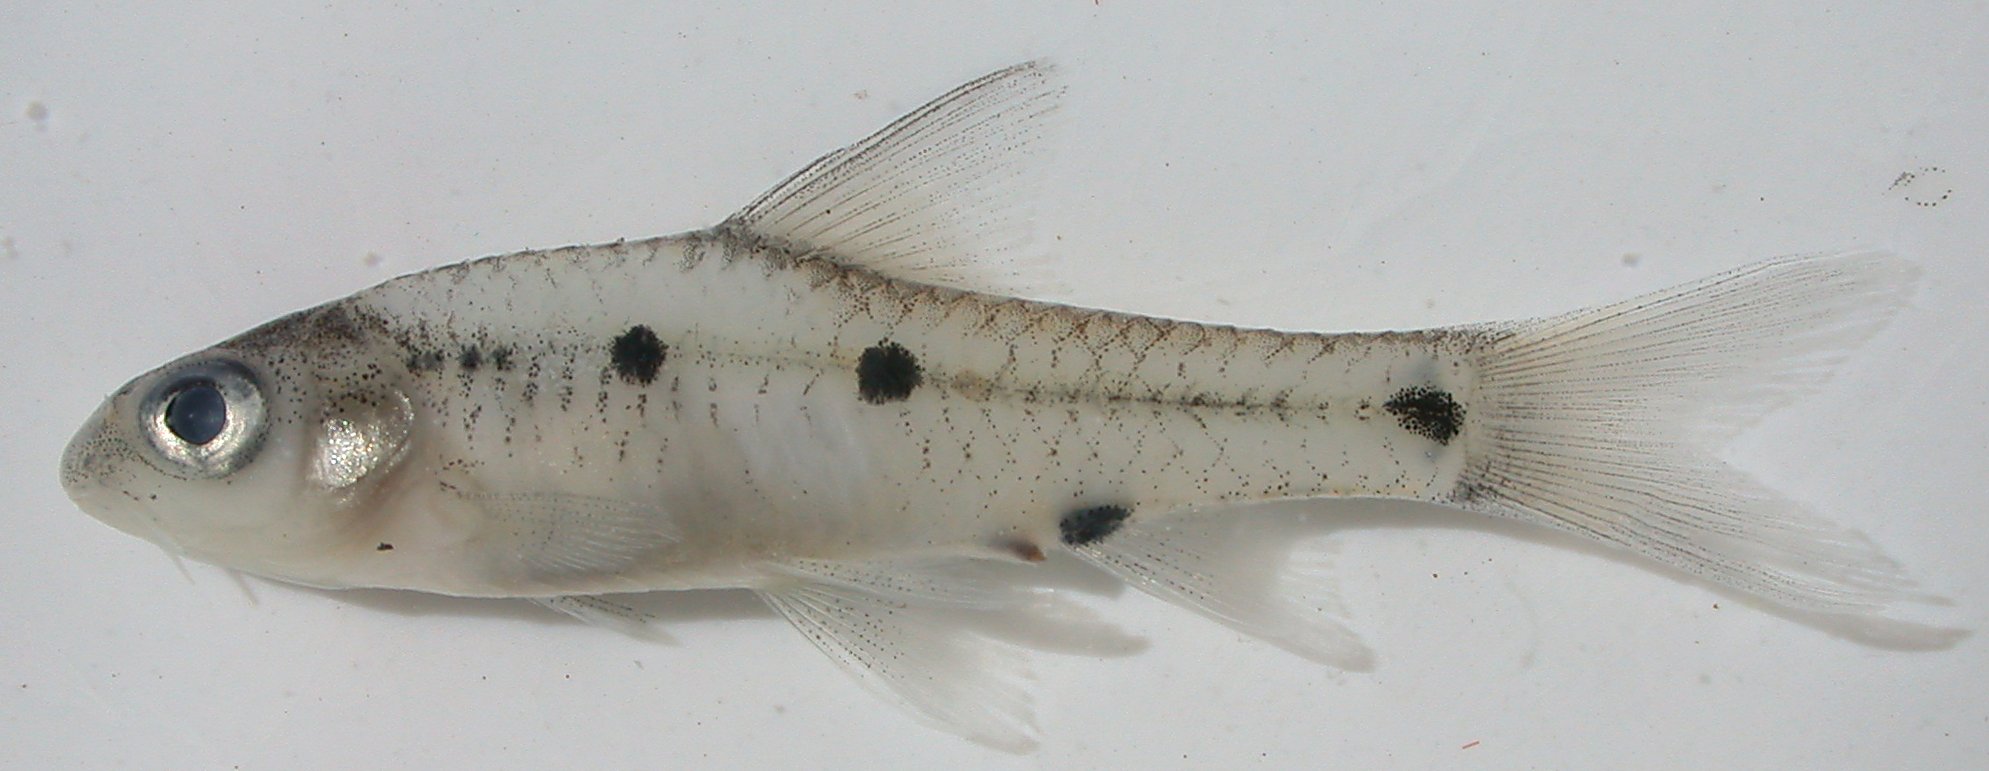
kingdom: Animalia
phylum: Chordata
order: Cypriniformes
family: Cyprinidae
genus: Enteromius
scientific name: Enteromius annectens
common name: Broadstriped barb
